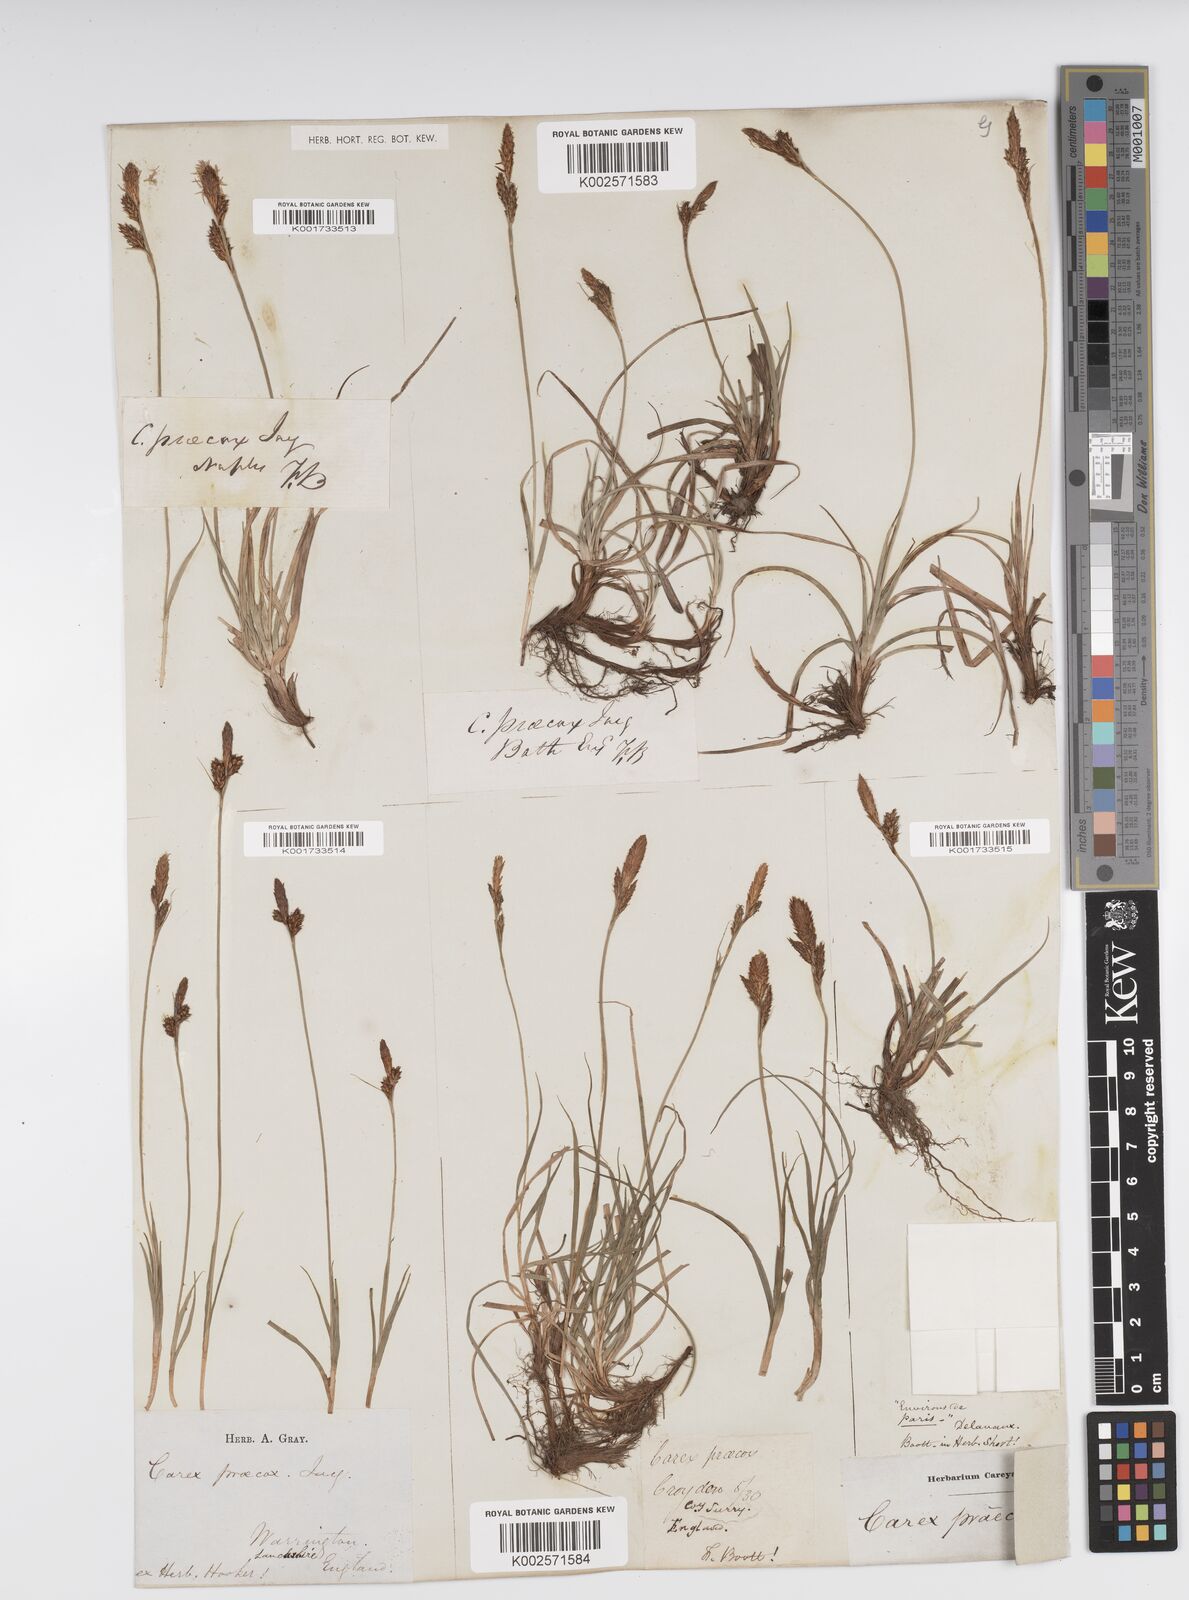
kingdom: Plantae
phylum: Tracheophyta
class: Liliopsida
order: Poales
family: Cyperaceae
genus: Carex
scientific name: Carex caryophyllea
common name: Spring sedge
